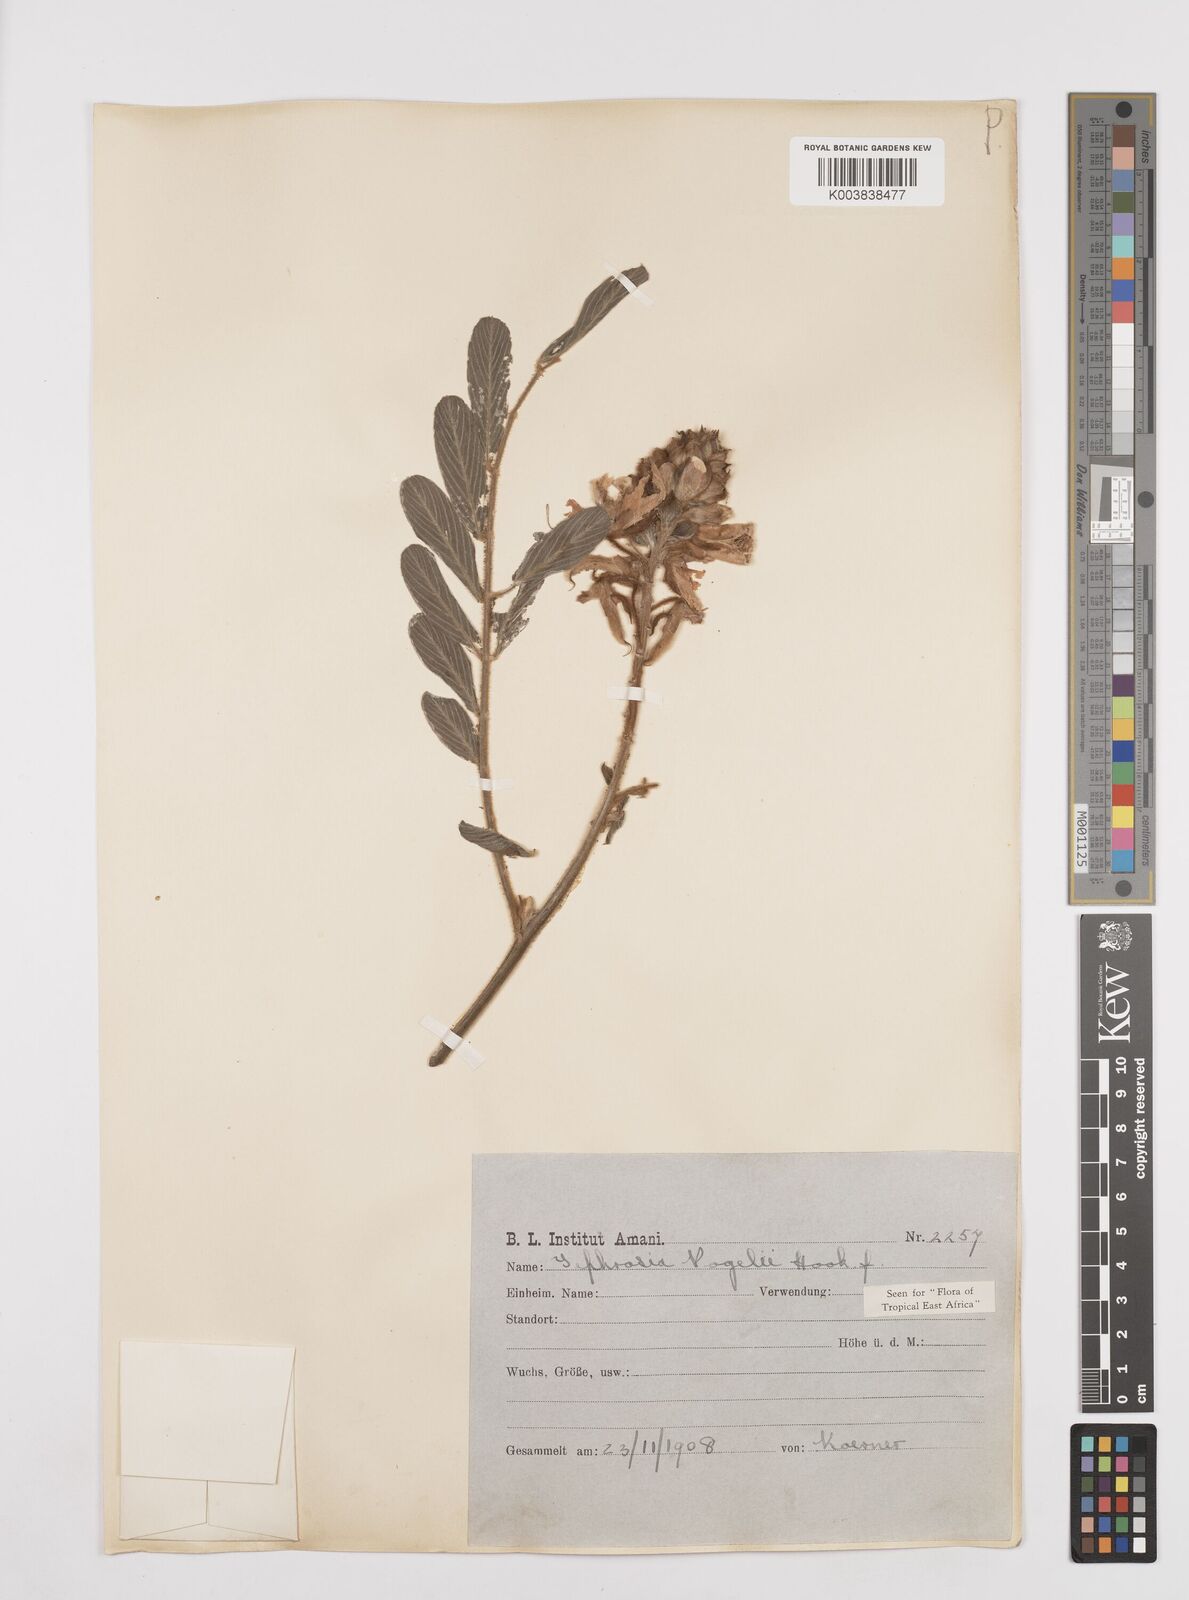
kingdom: Plantae
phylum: Tracheophyta
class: Magnoliopsida
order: Fabales
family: Fabaceae
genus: Tephrosia
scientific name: Tephrosia vogelii
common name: Vogel tephrosia
